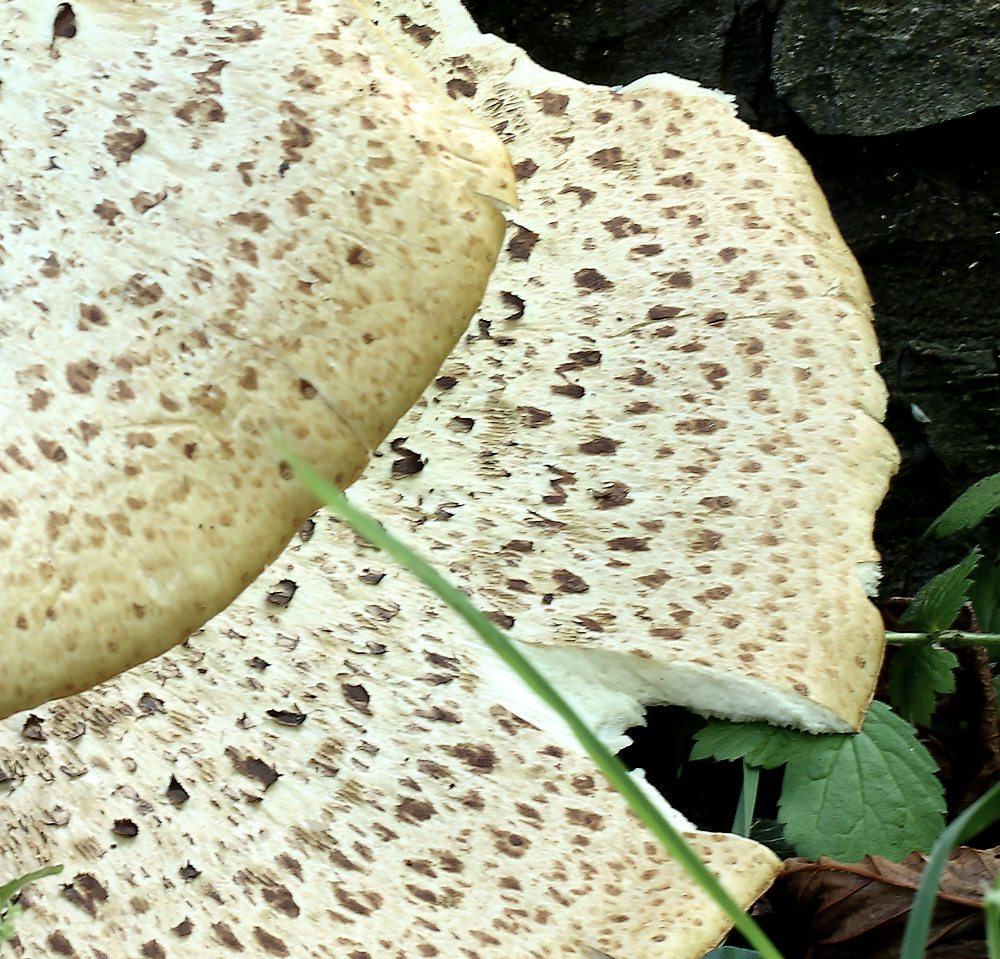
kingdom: Fungi
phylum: Basidiomycota
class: Agaricomycetes
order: Polyporales
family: Polyporaceae
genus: Cerioporus
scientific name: Cerioporus squamosus
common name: skællet stilkporesvamp
